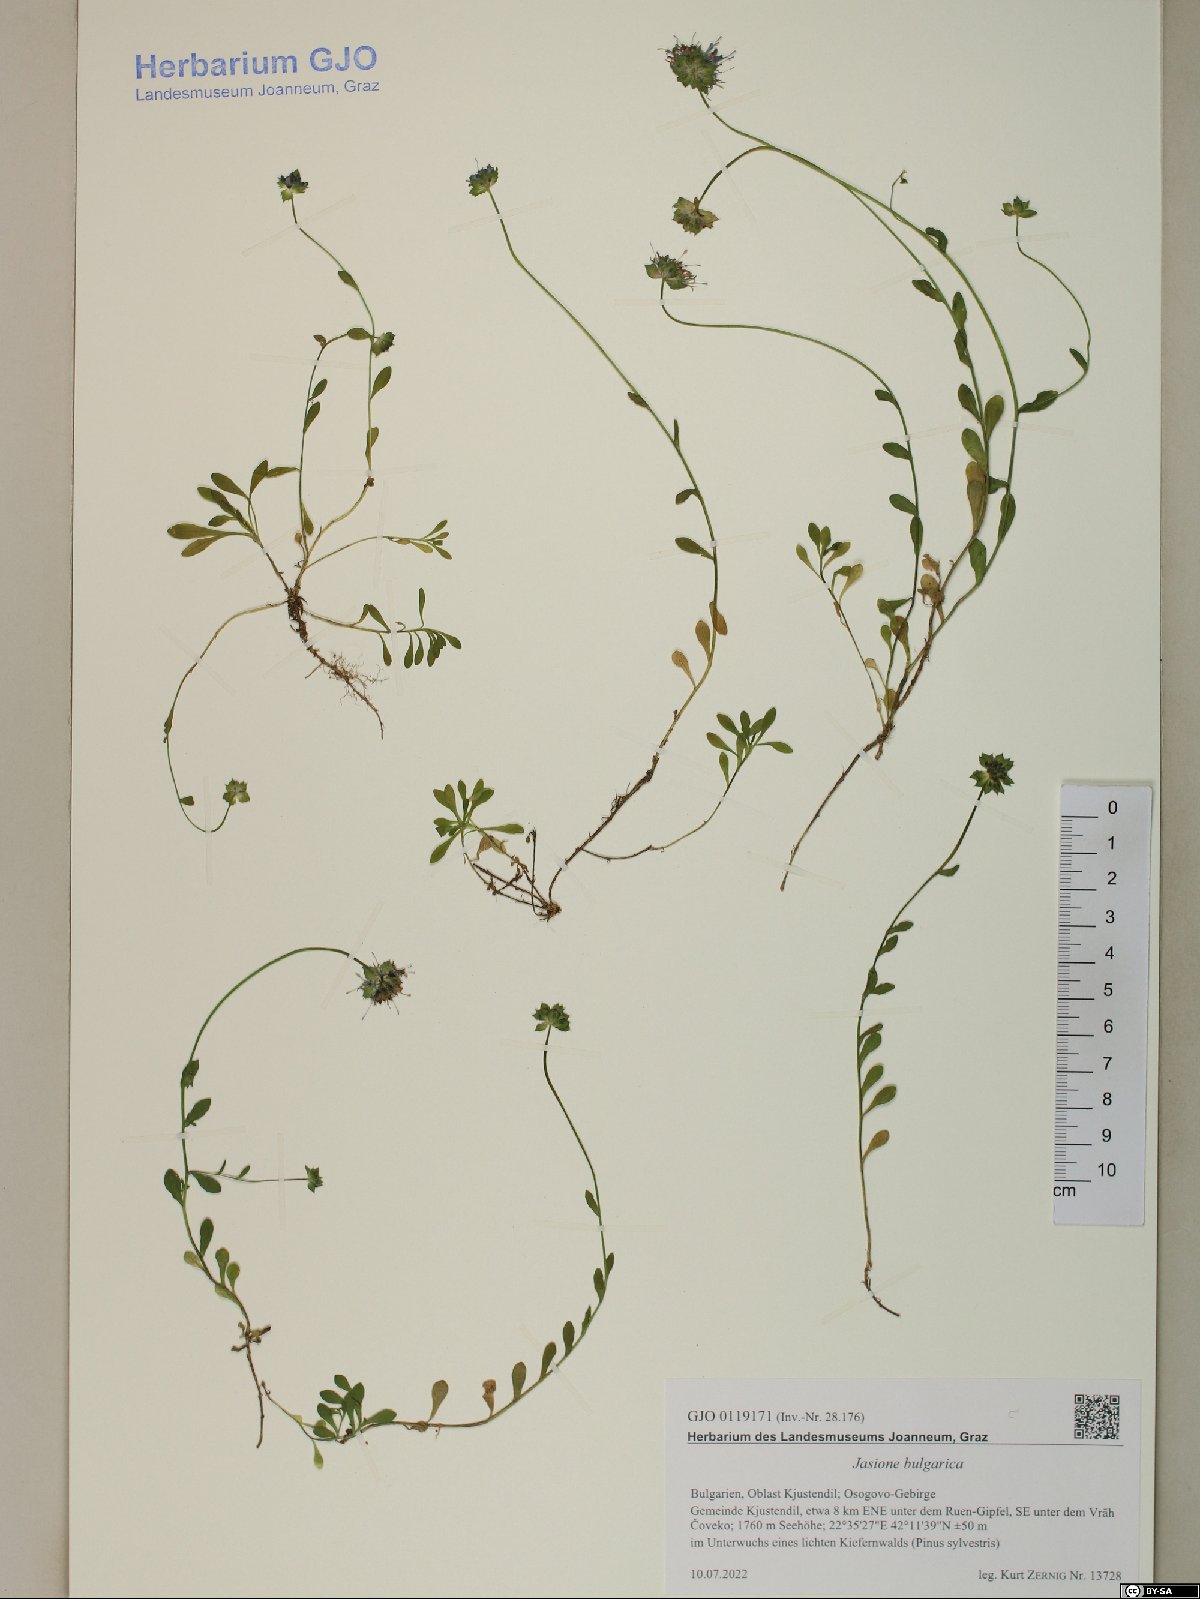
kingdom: Plantae
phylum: Tracheophyta
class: Magnoliopsida
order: Asterales
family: Campanulaceae
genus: Jasione
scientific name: Jasione bulgarica
